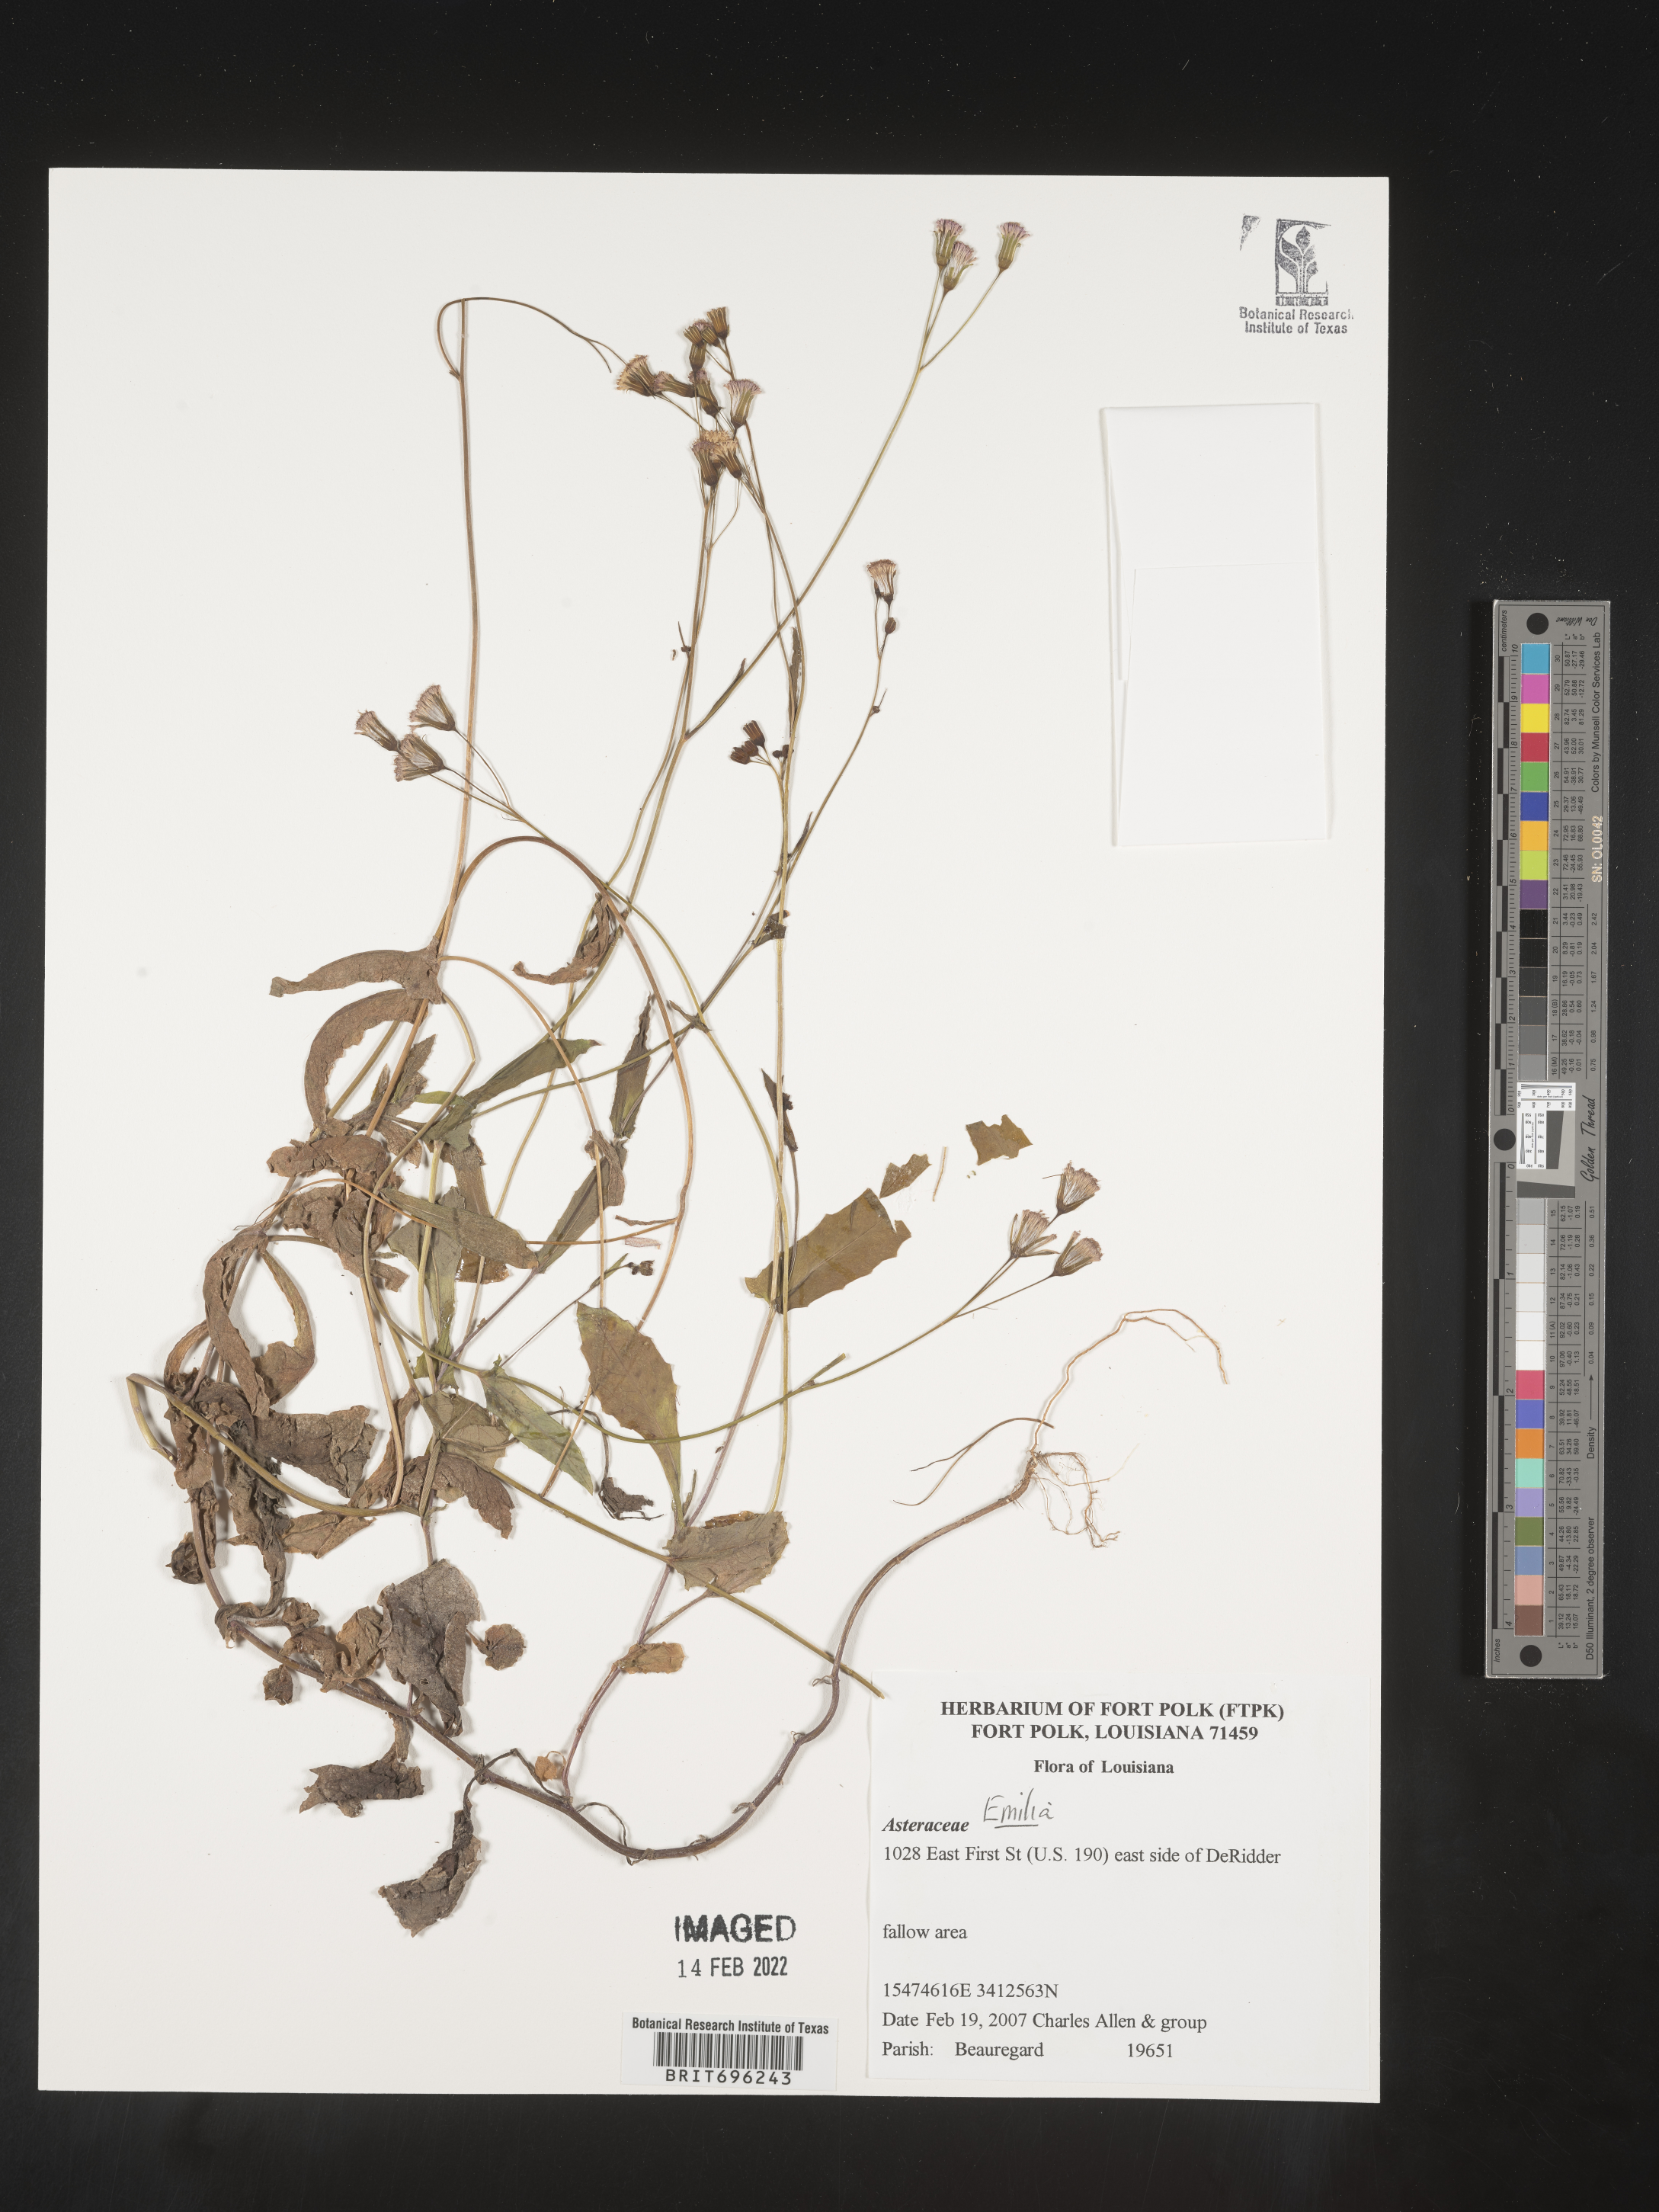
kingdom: Plantae
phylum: Tracheophyta
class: Magnoliopsida
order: Asterales
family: Asteraceae
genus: Emilia
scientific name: Emilia
